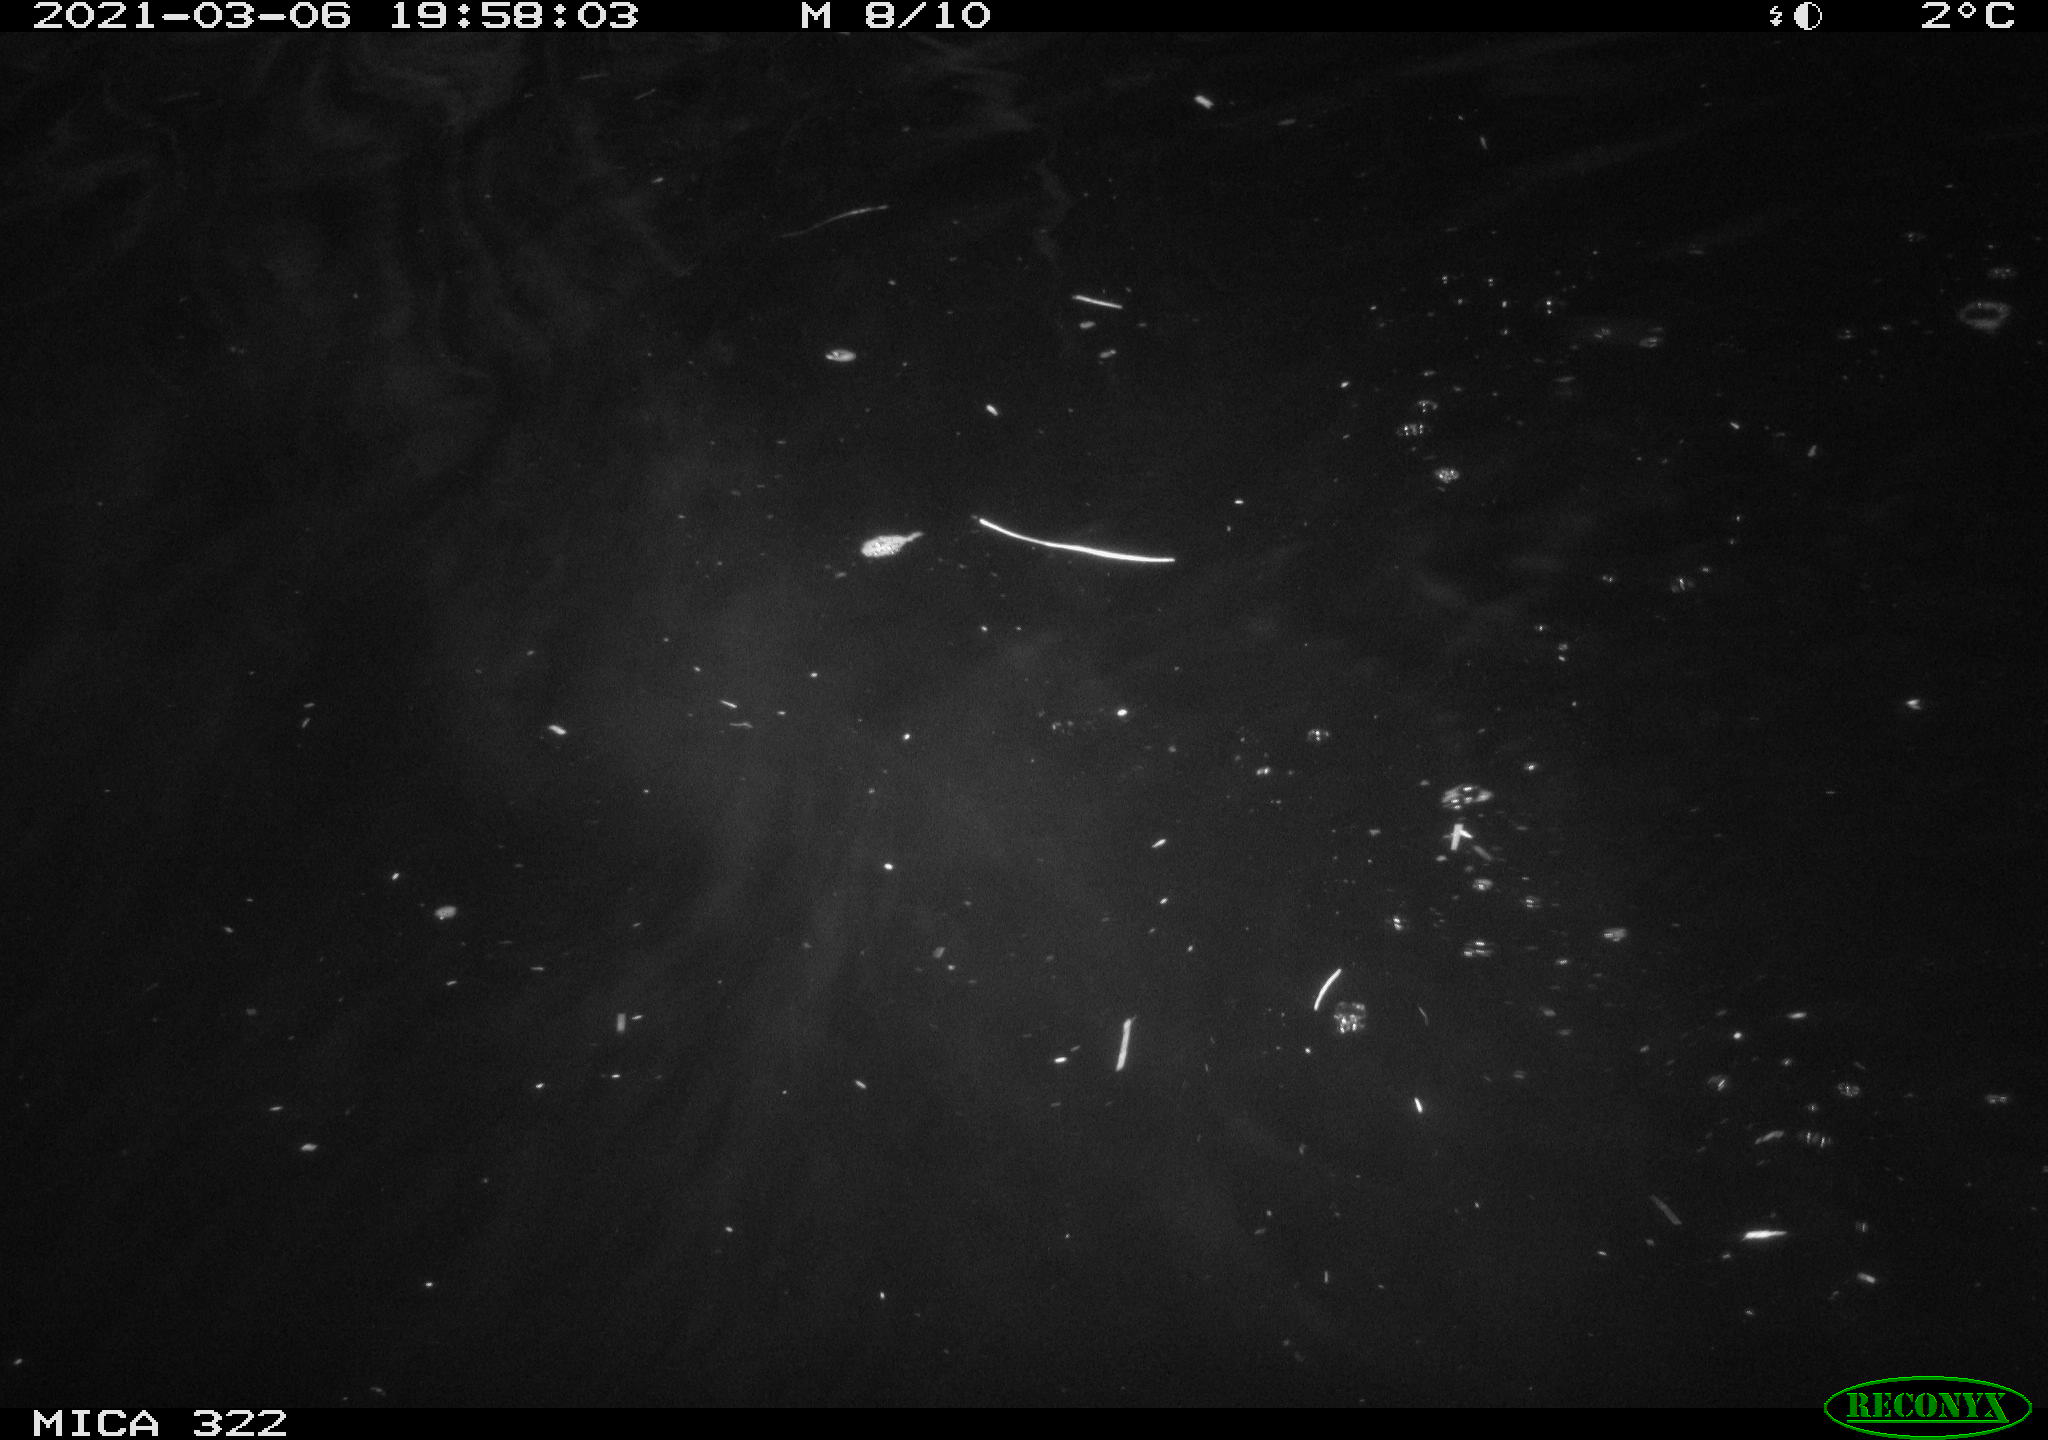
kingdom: Animalia
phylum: Chordata
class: Aves
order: Gruiformes
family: Rallidae
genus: Fulica
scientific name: Fulica atra
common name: Eurasian coot
